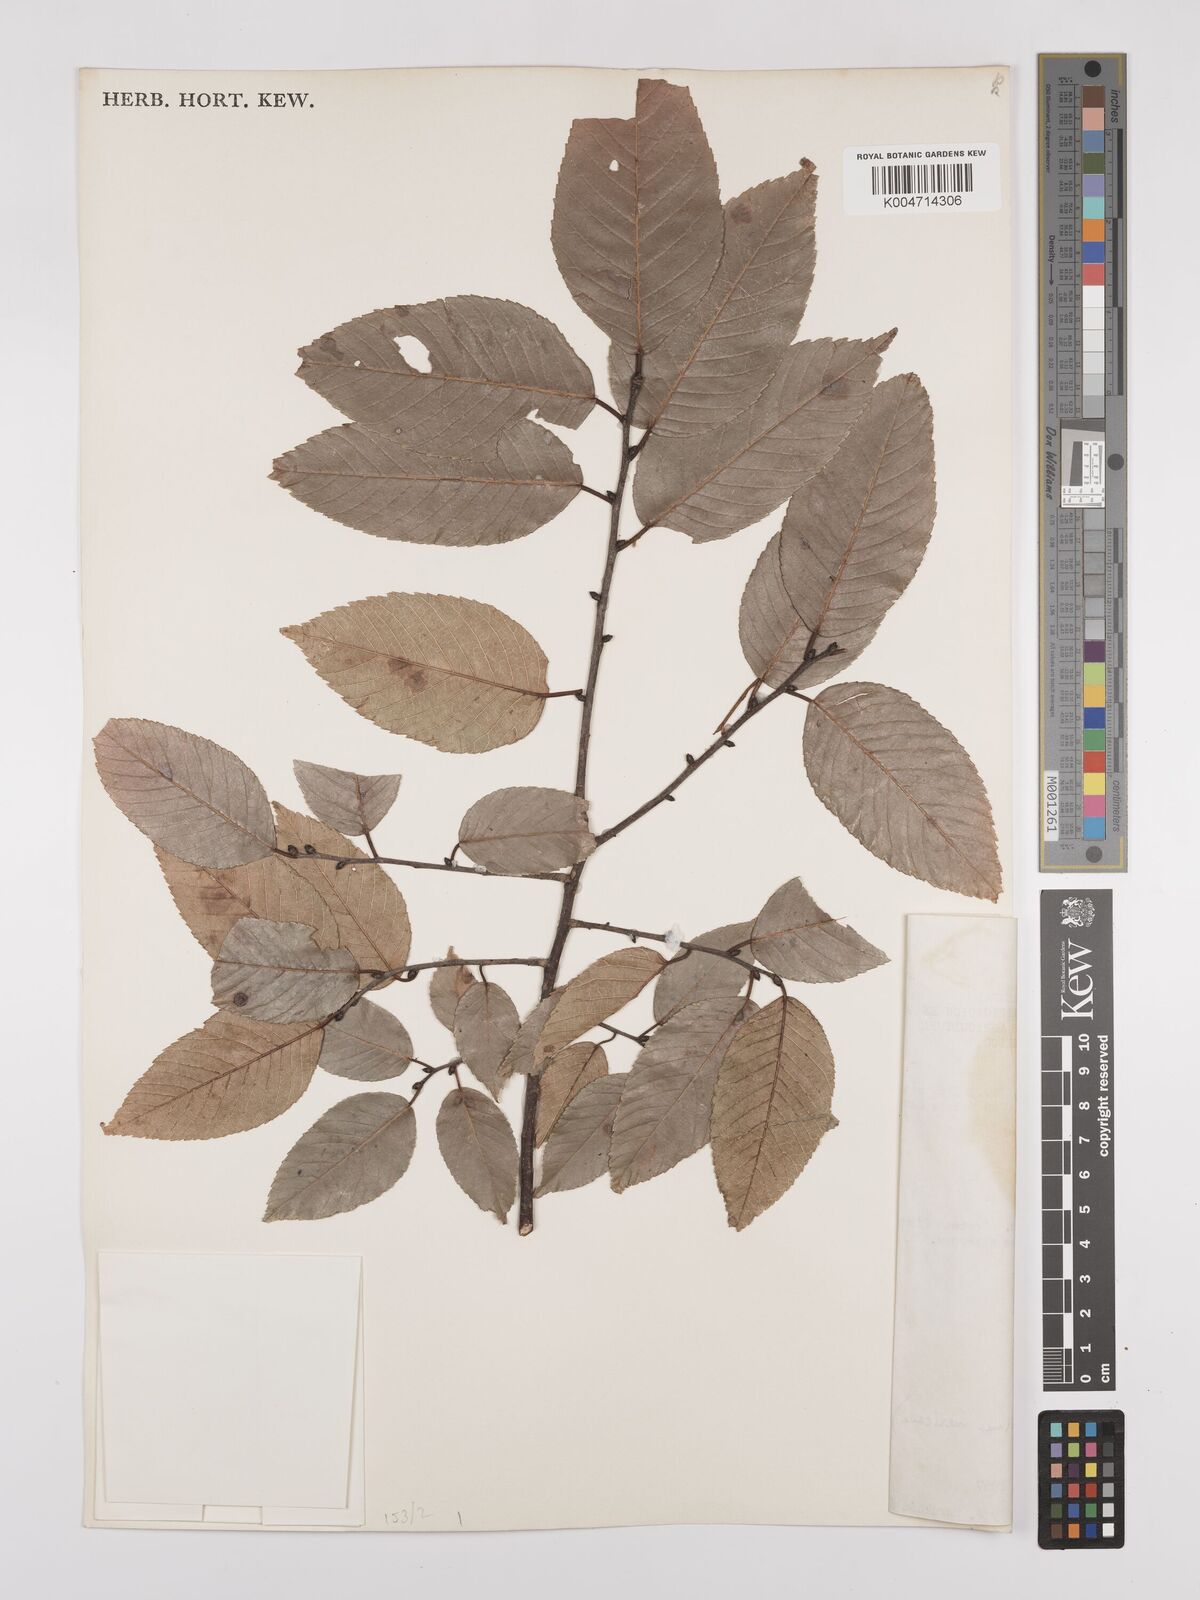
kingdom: Plantae
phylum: Tracheophyta
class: Magnoliopsida
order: Rosales
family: Ulmaceae
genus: Ulmus
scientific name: Ulmus mexicana
